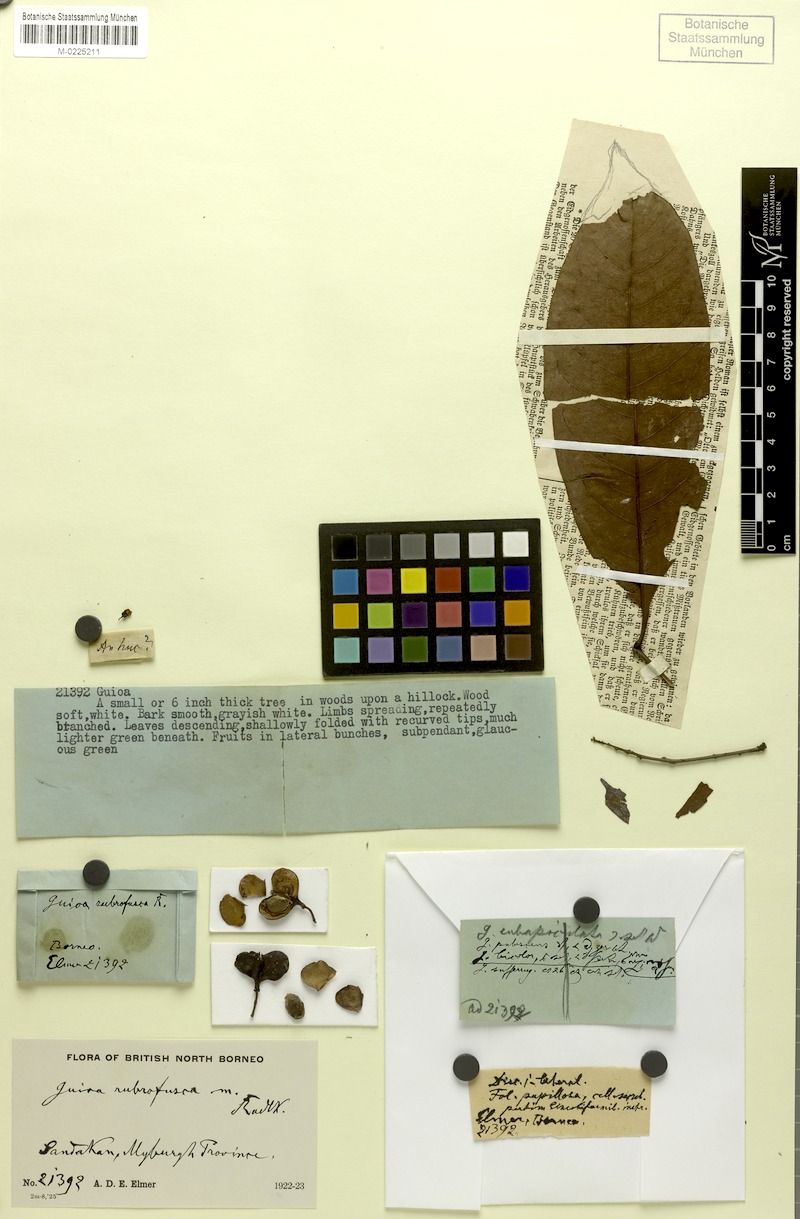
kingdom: Plantae
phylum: Tracheophyta
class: Magnoliopsida
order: Sapindales
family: Sapindaceae
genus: Guioa
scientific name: Guioa bijuga
